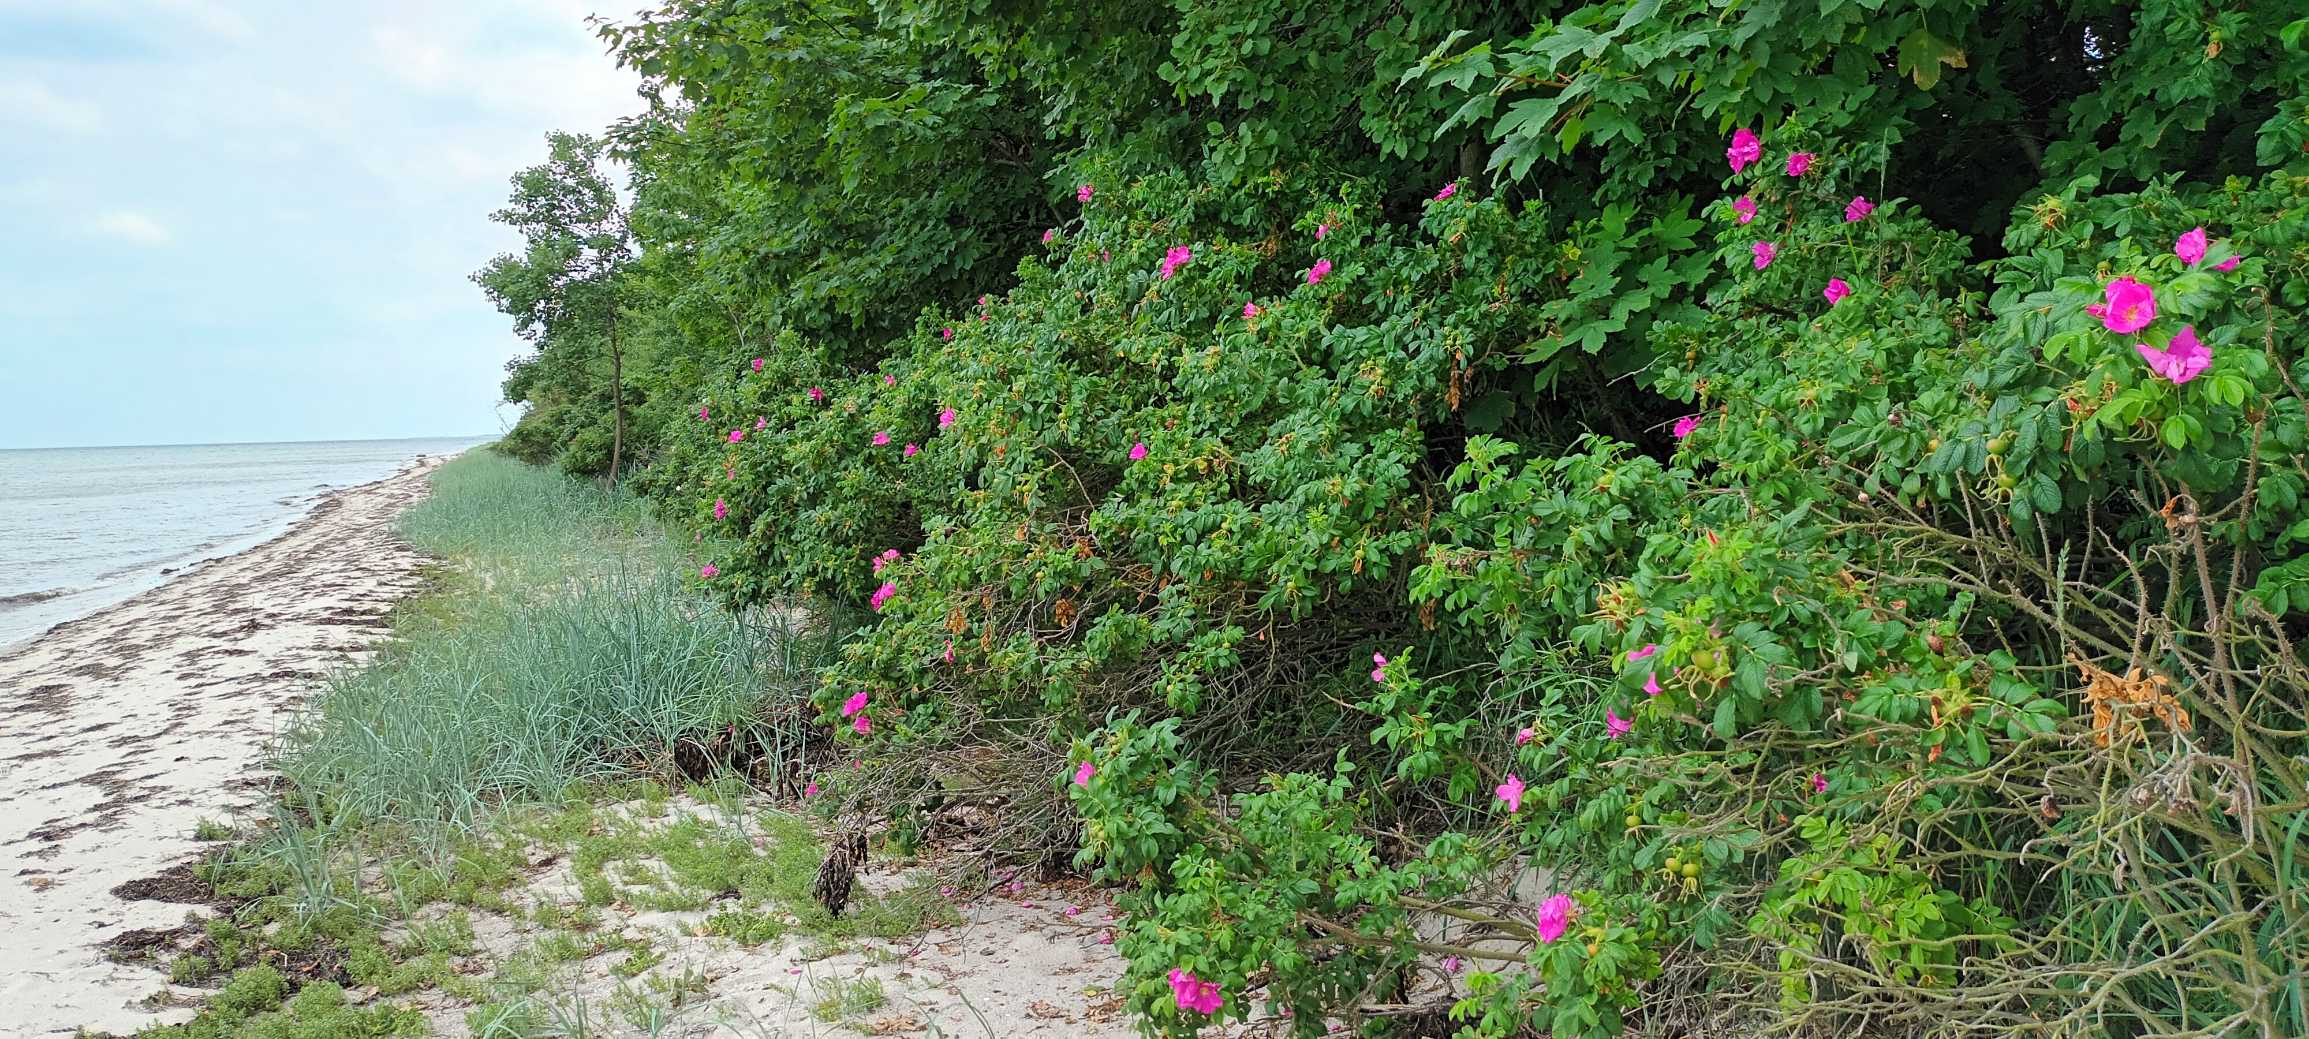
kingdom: Plantae
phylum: Tracheophyta
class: Magnoliopsida
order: Rosales
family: Rosaceae
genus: Rosa
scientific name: Rosa rugosa
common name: Rynket rose
